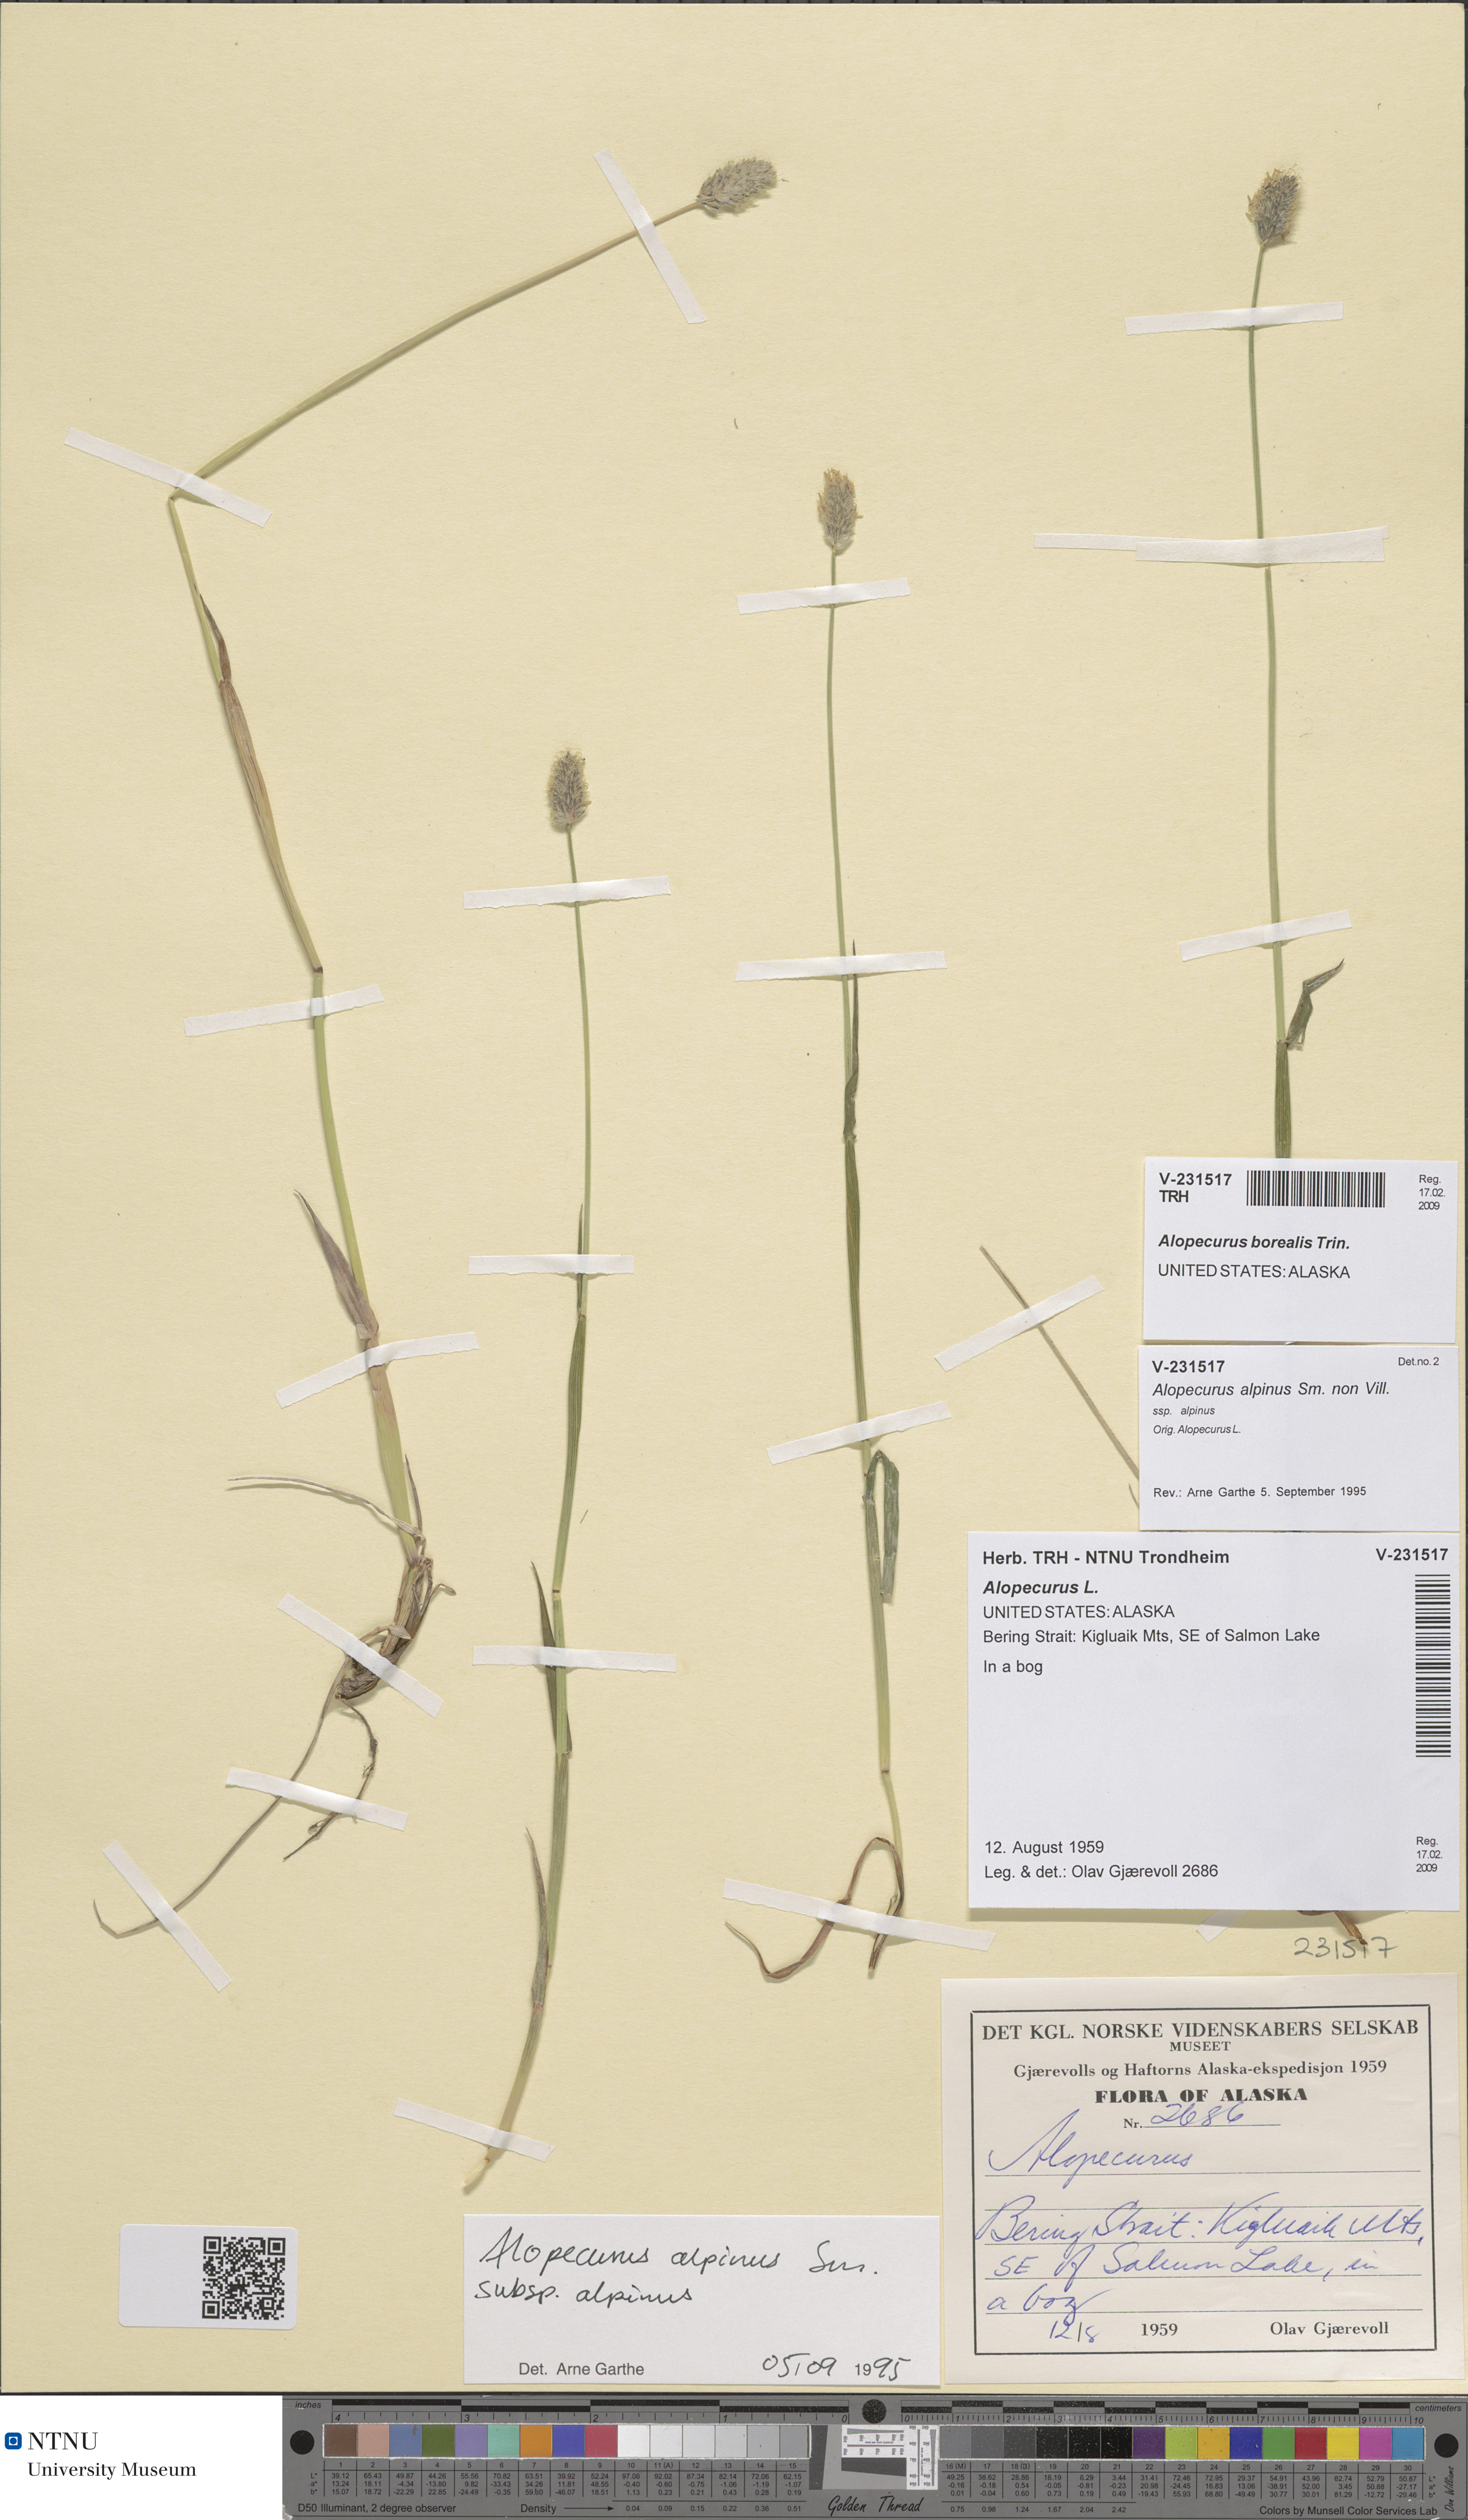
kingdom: Plantae
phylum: Tracheophyta
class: Liliopsida
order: Poales
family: Poaceae
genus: Alopecurus
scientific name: Alopecurus magellanicus
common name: Alpine foxtail
